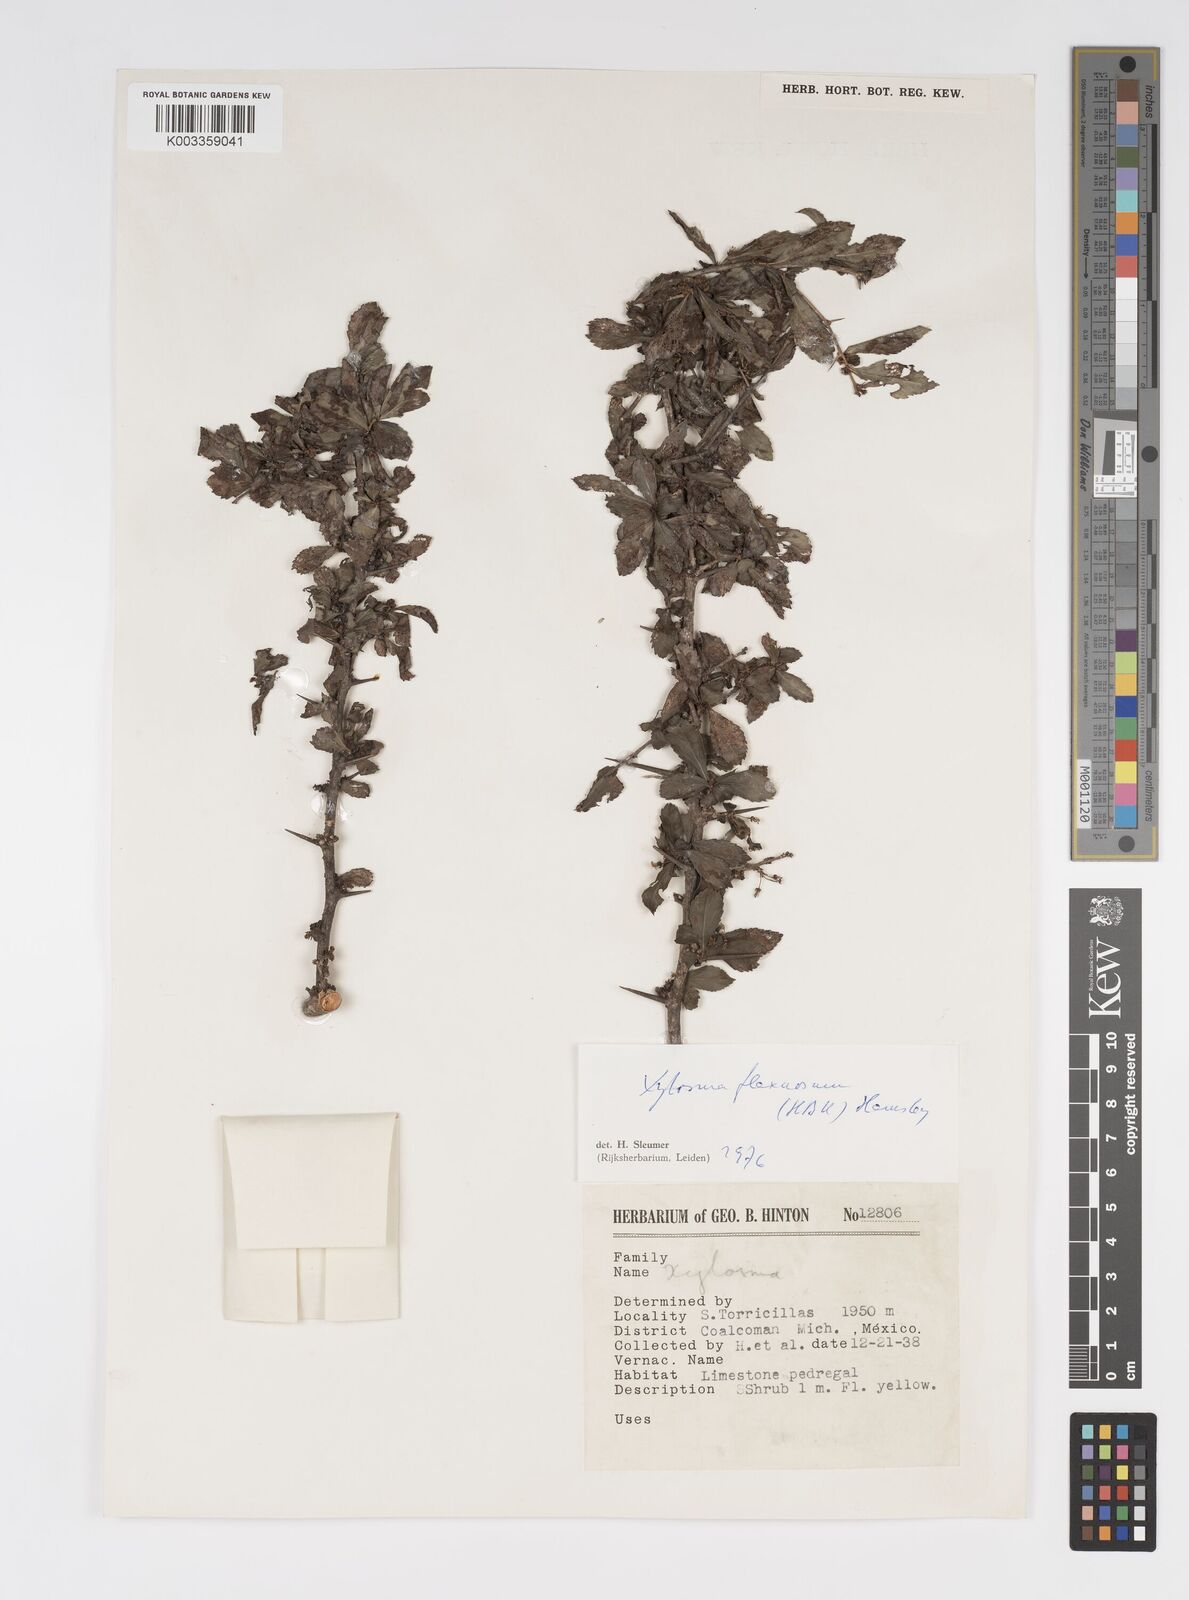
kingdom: Plantae
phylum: Tracheophyta
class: Magnoliopsida
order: Malpighiales
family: Salicaceae
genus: Xylosma
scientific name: Xylosma flexuosa
